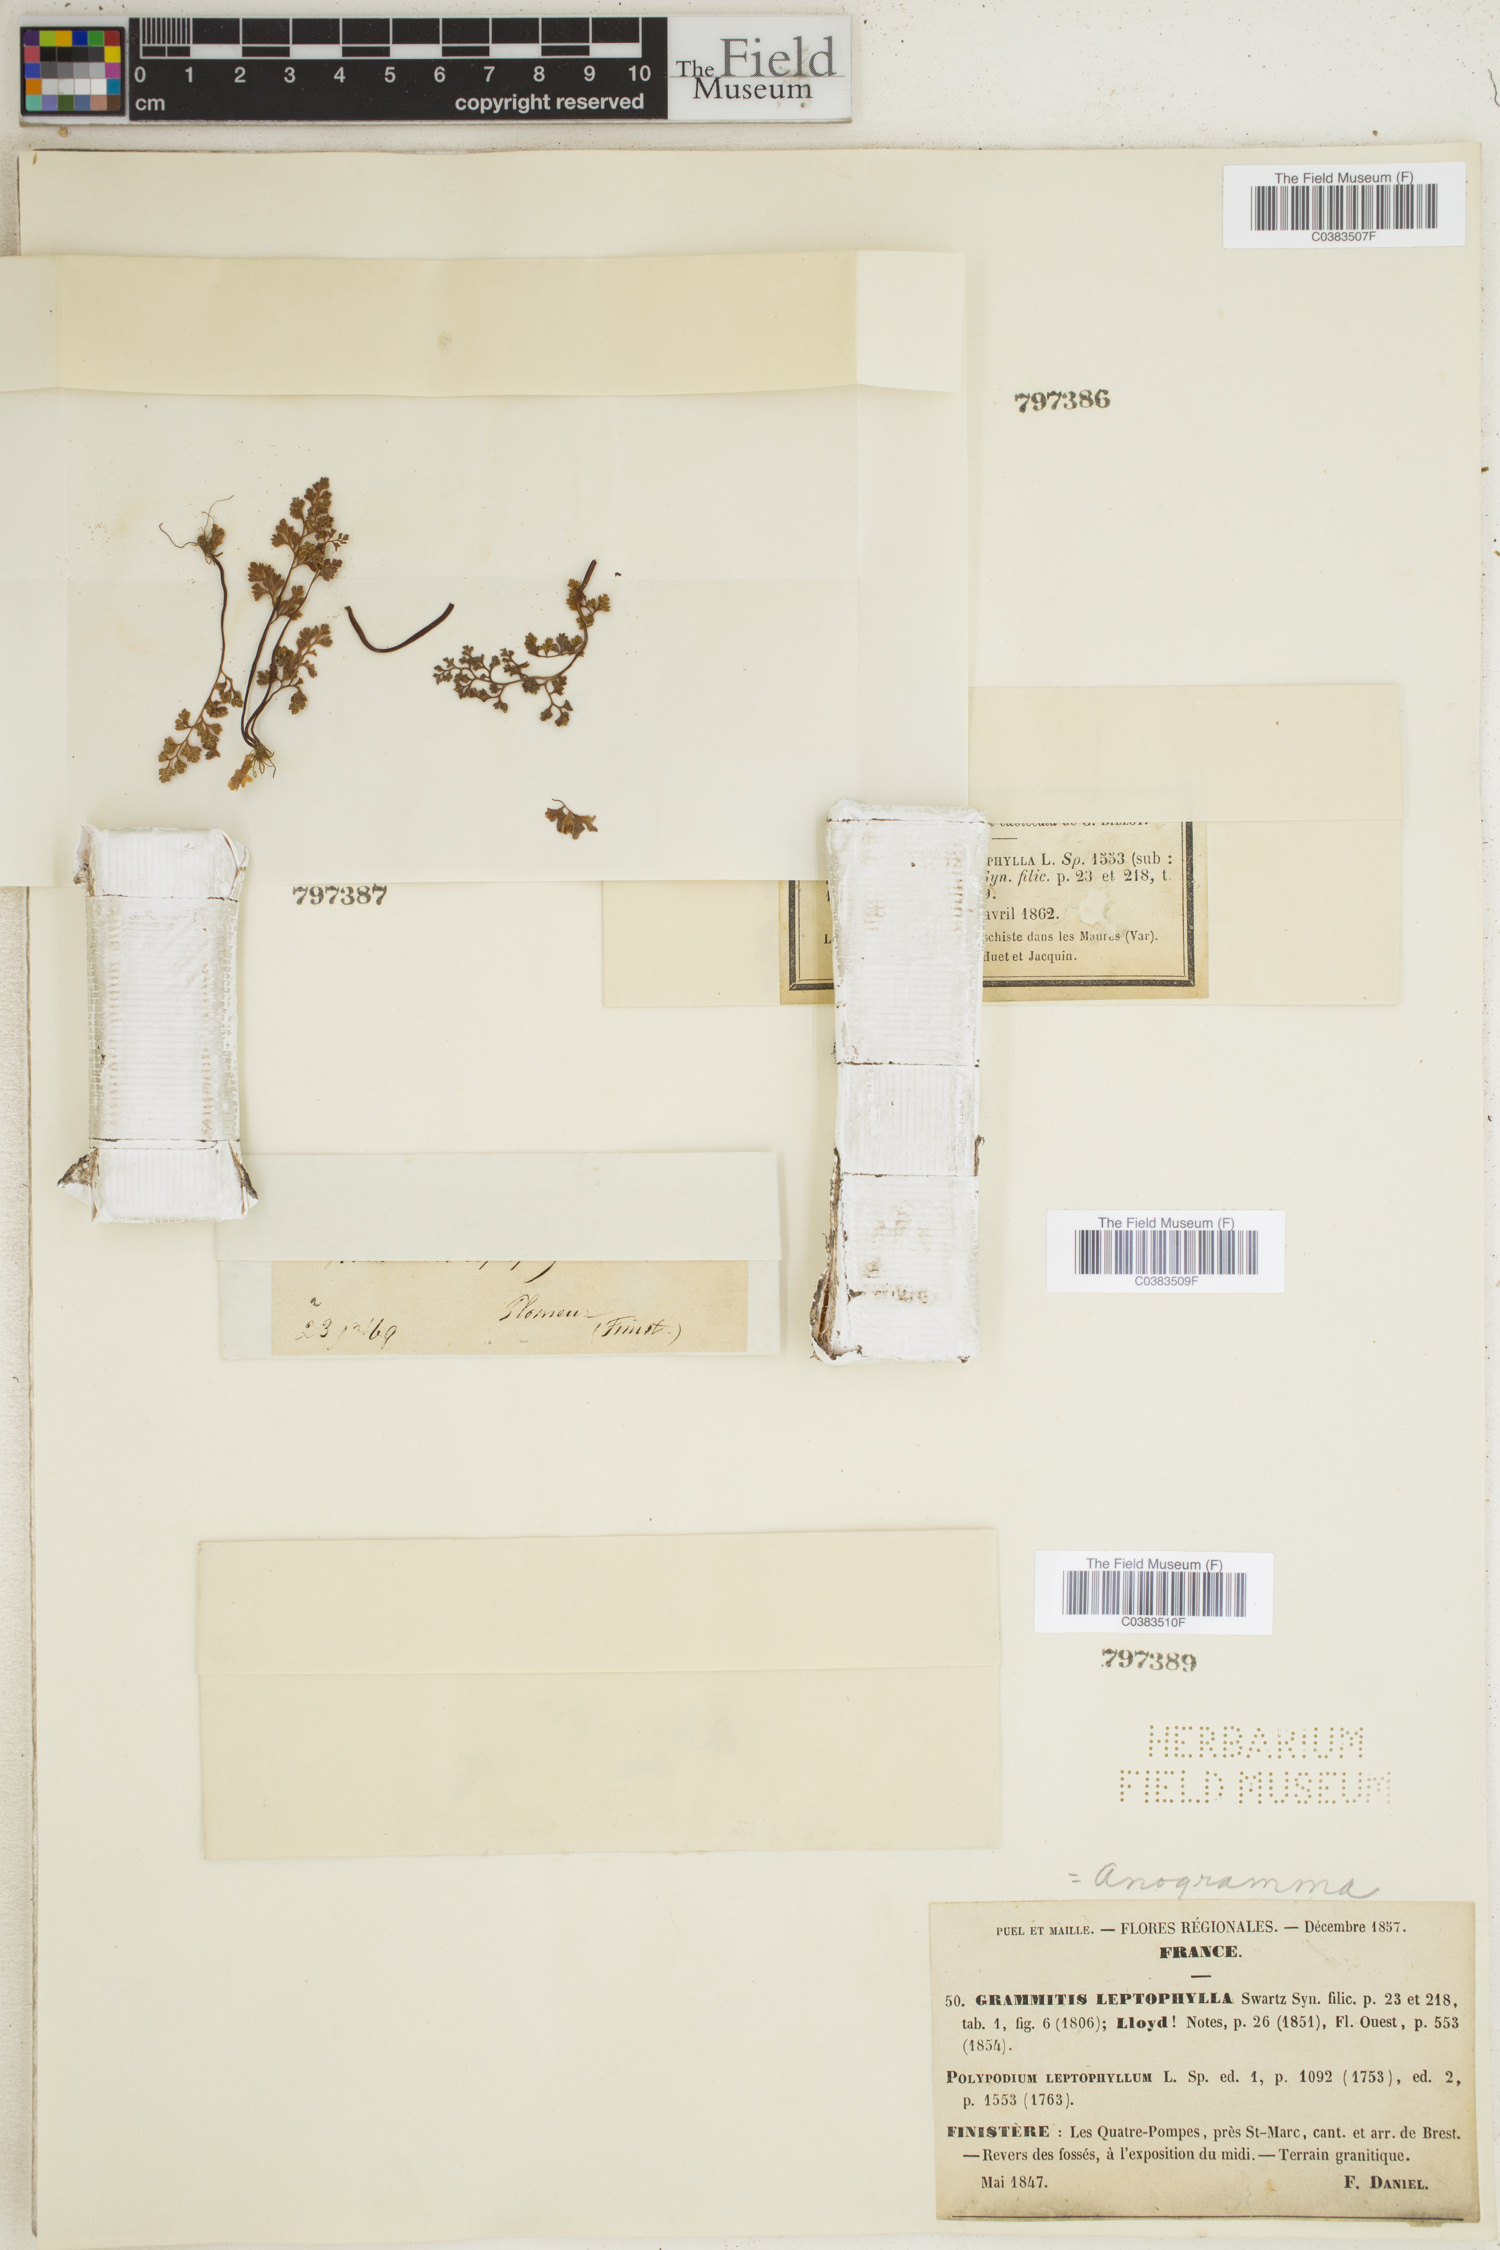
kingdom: Plantae
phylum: Tracheophyta
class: Polypodiopsida
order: Polypodiales
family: Pteridaceae
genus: Anogramma
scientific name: Anogramma leptophylla
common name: Jersey fern
